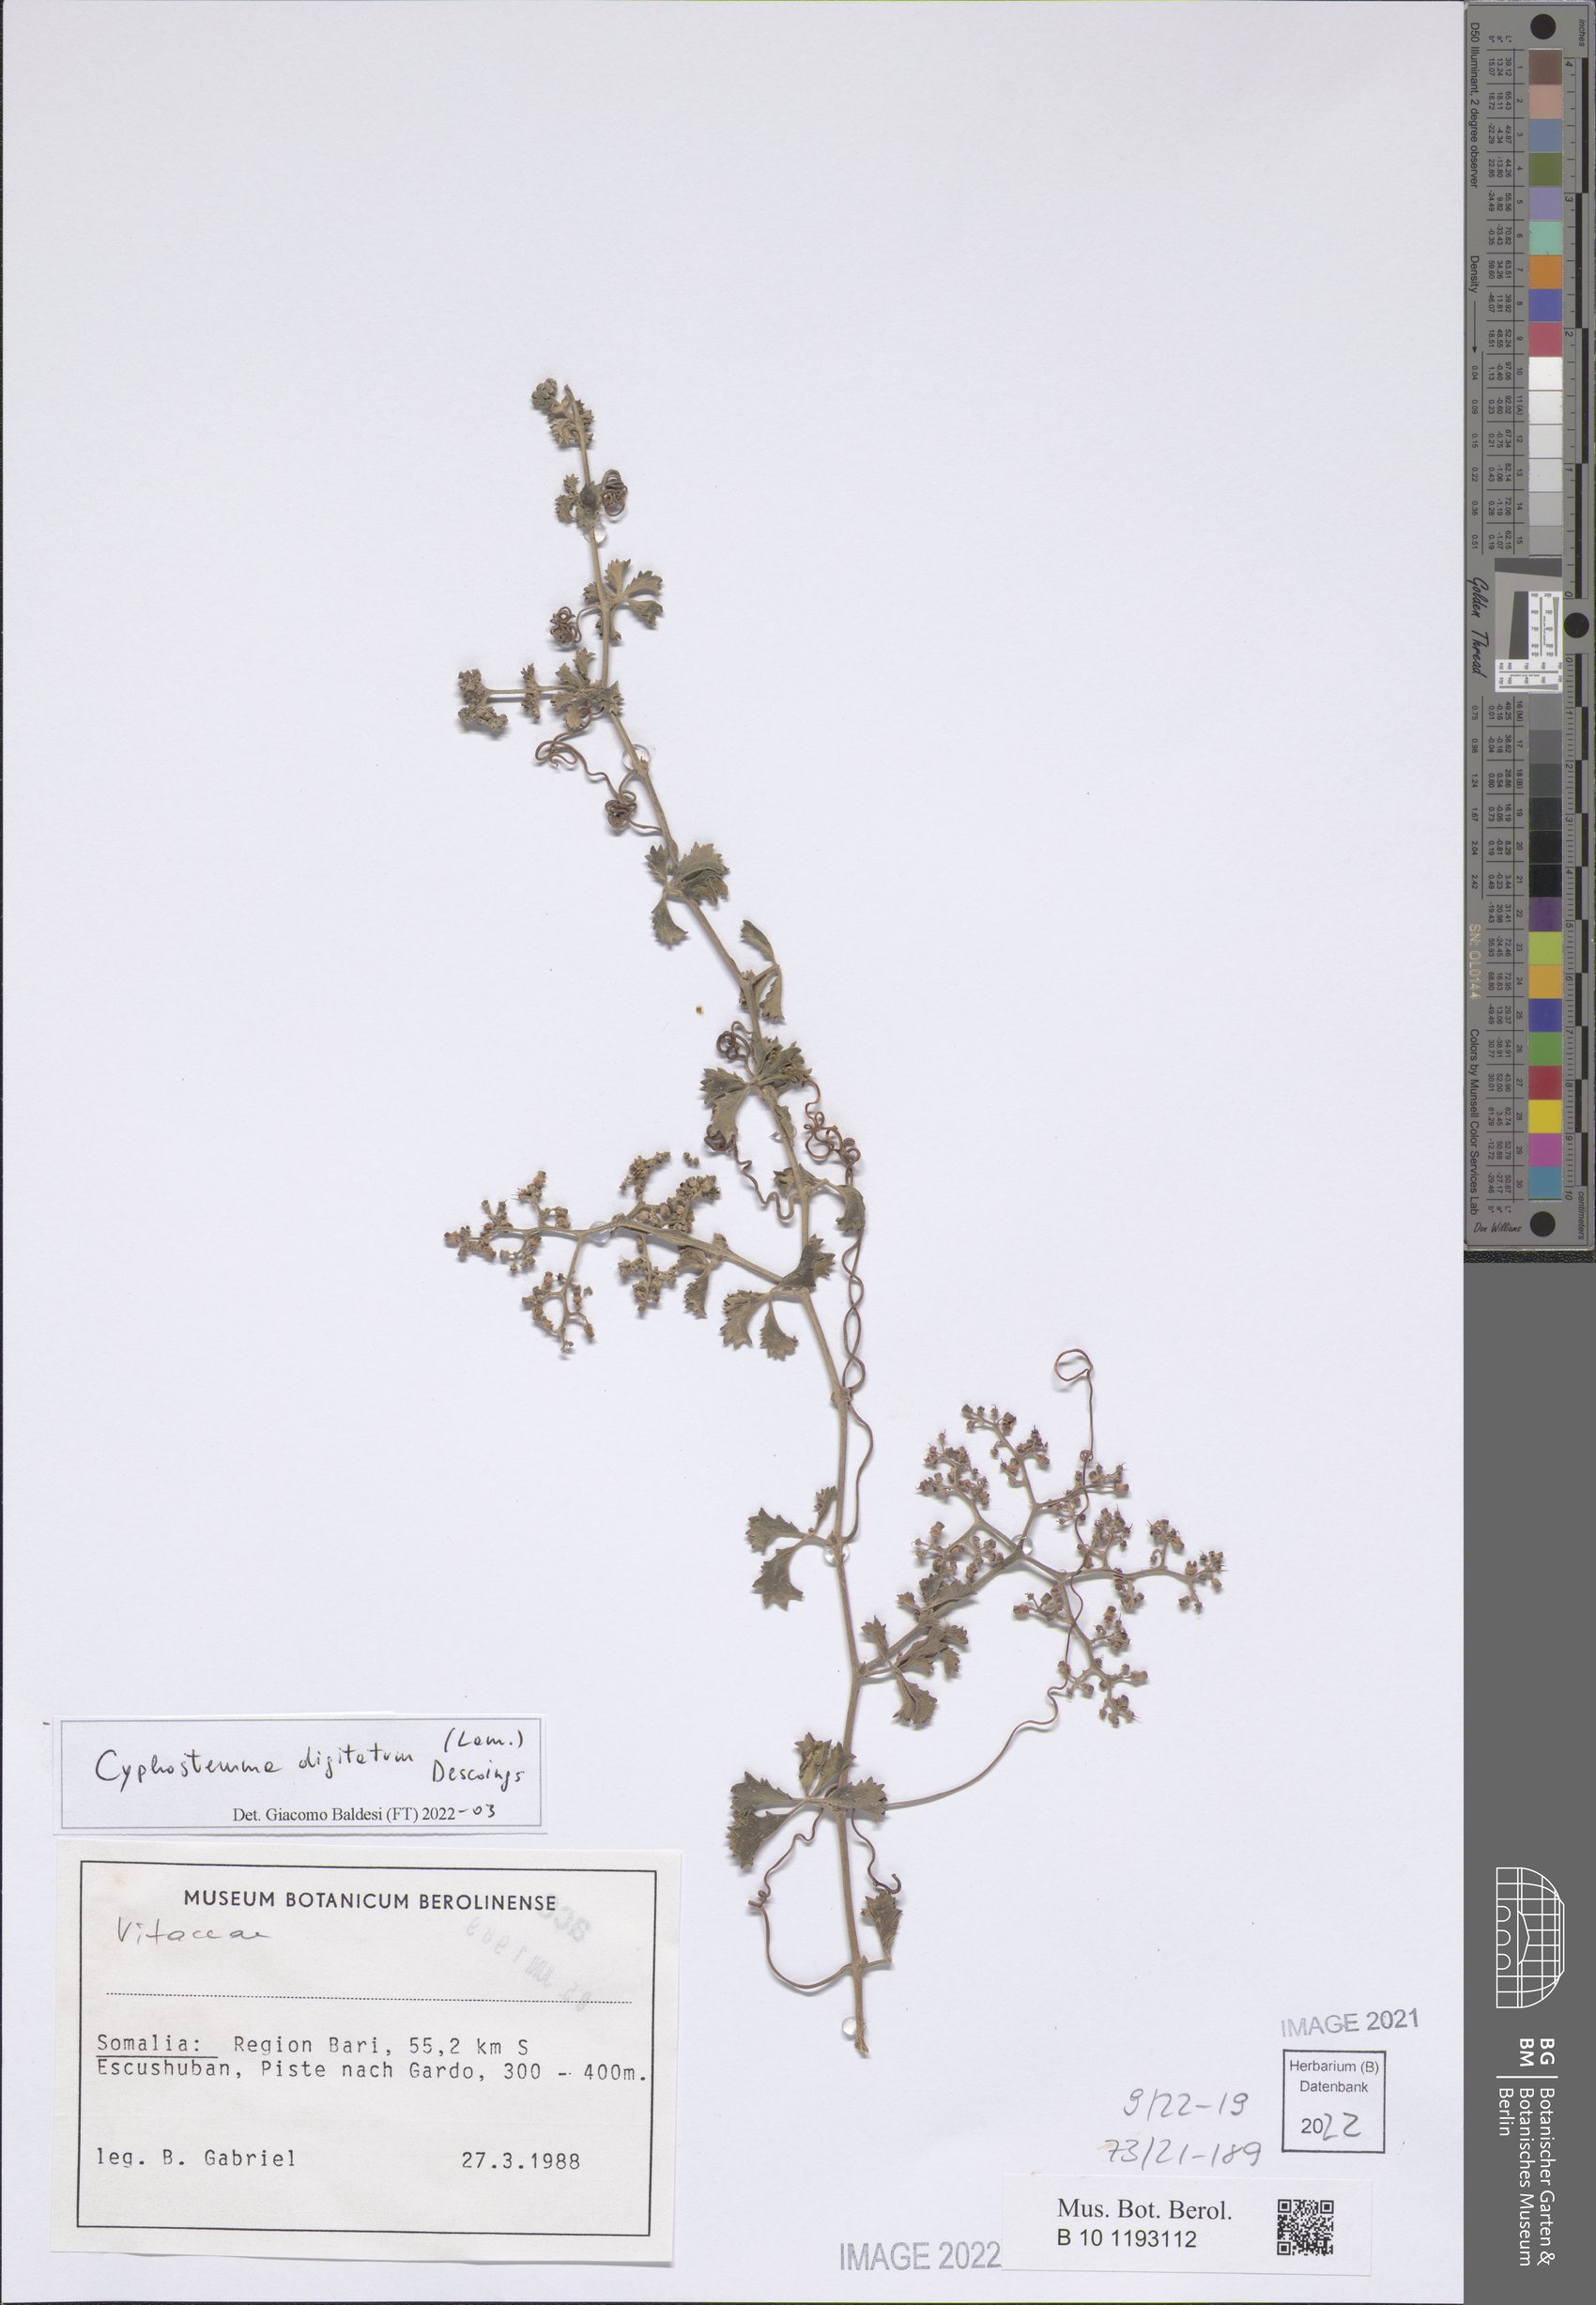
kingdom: Plantae
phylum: Tracheophyta
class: Magnoliopsida
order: Vitales
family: Vitaceae
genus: Cyphostemma
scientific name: Cyphostemma digitatum
